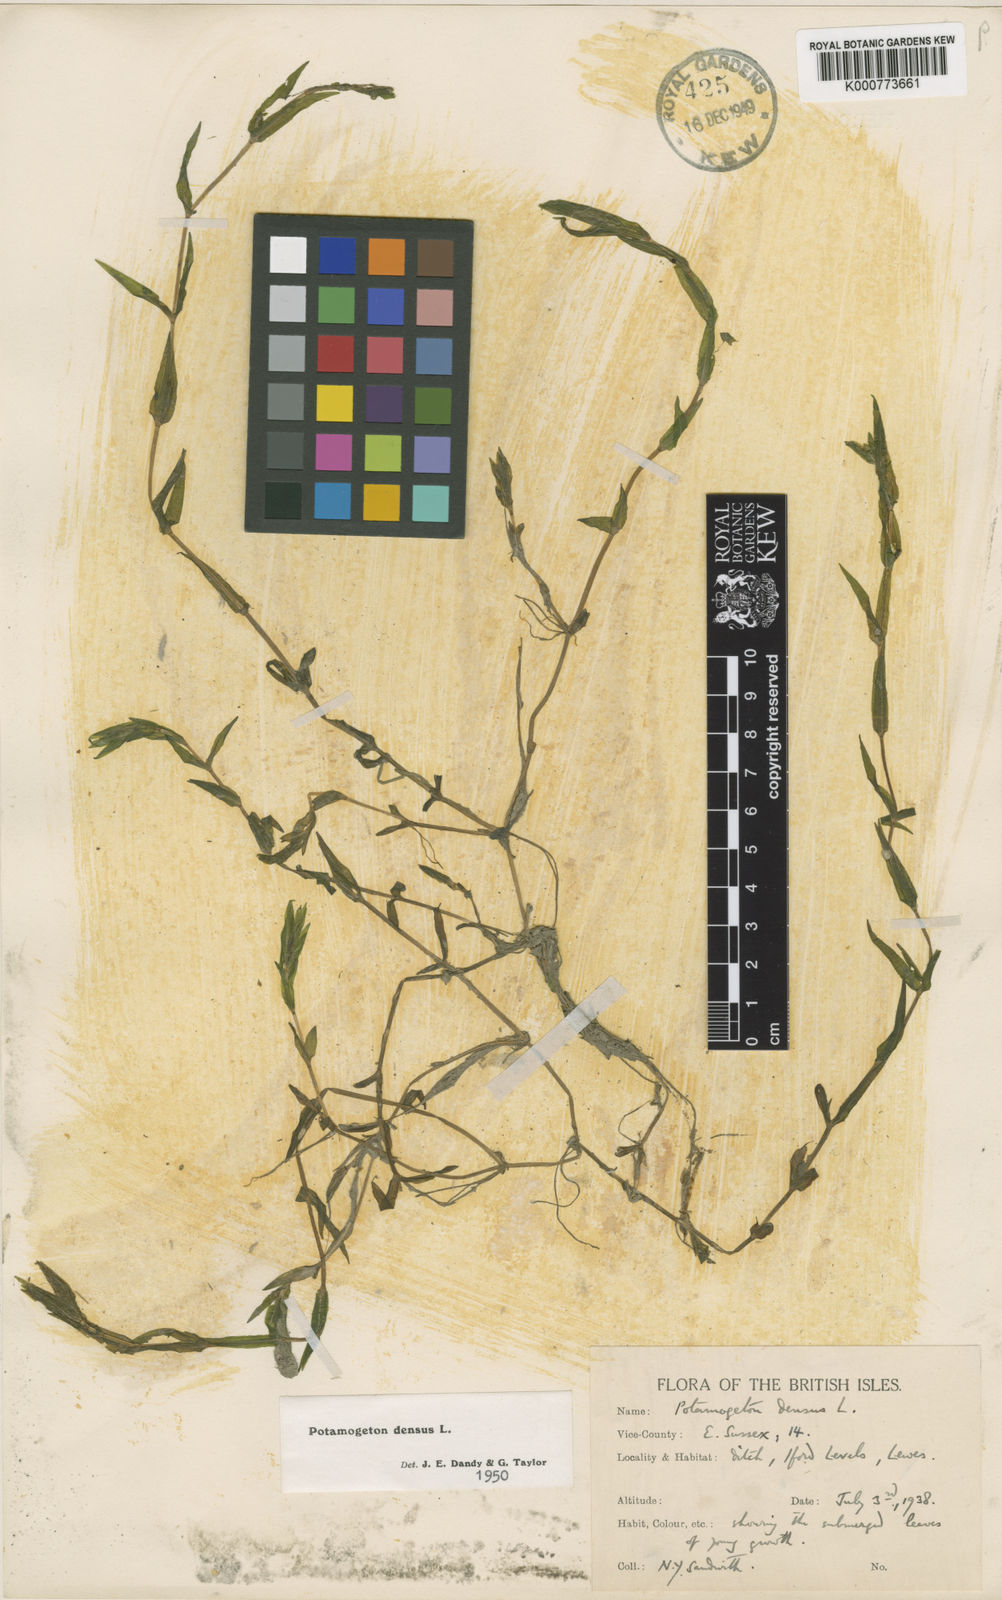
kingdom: Plantae
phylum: Tracheophyta
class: Liliopsida
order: Alismatales
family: Potamogetonaceae
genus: Groenlandia
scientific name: Groenlandia densa
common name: Opposite-leaved pondweed
